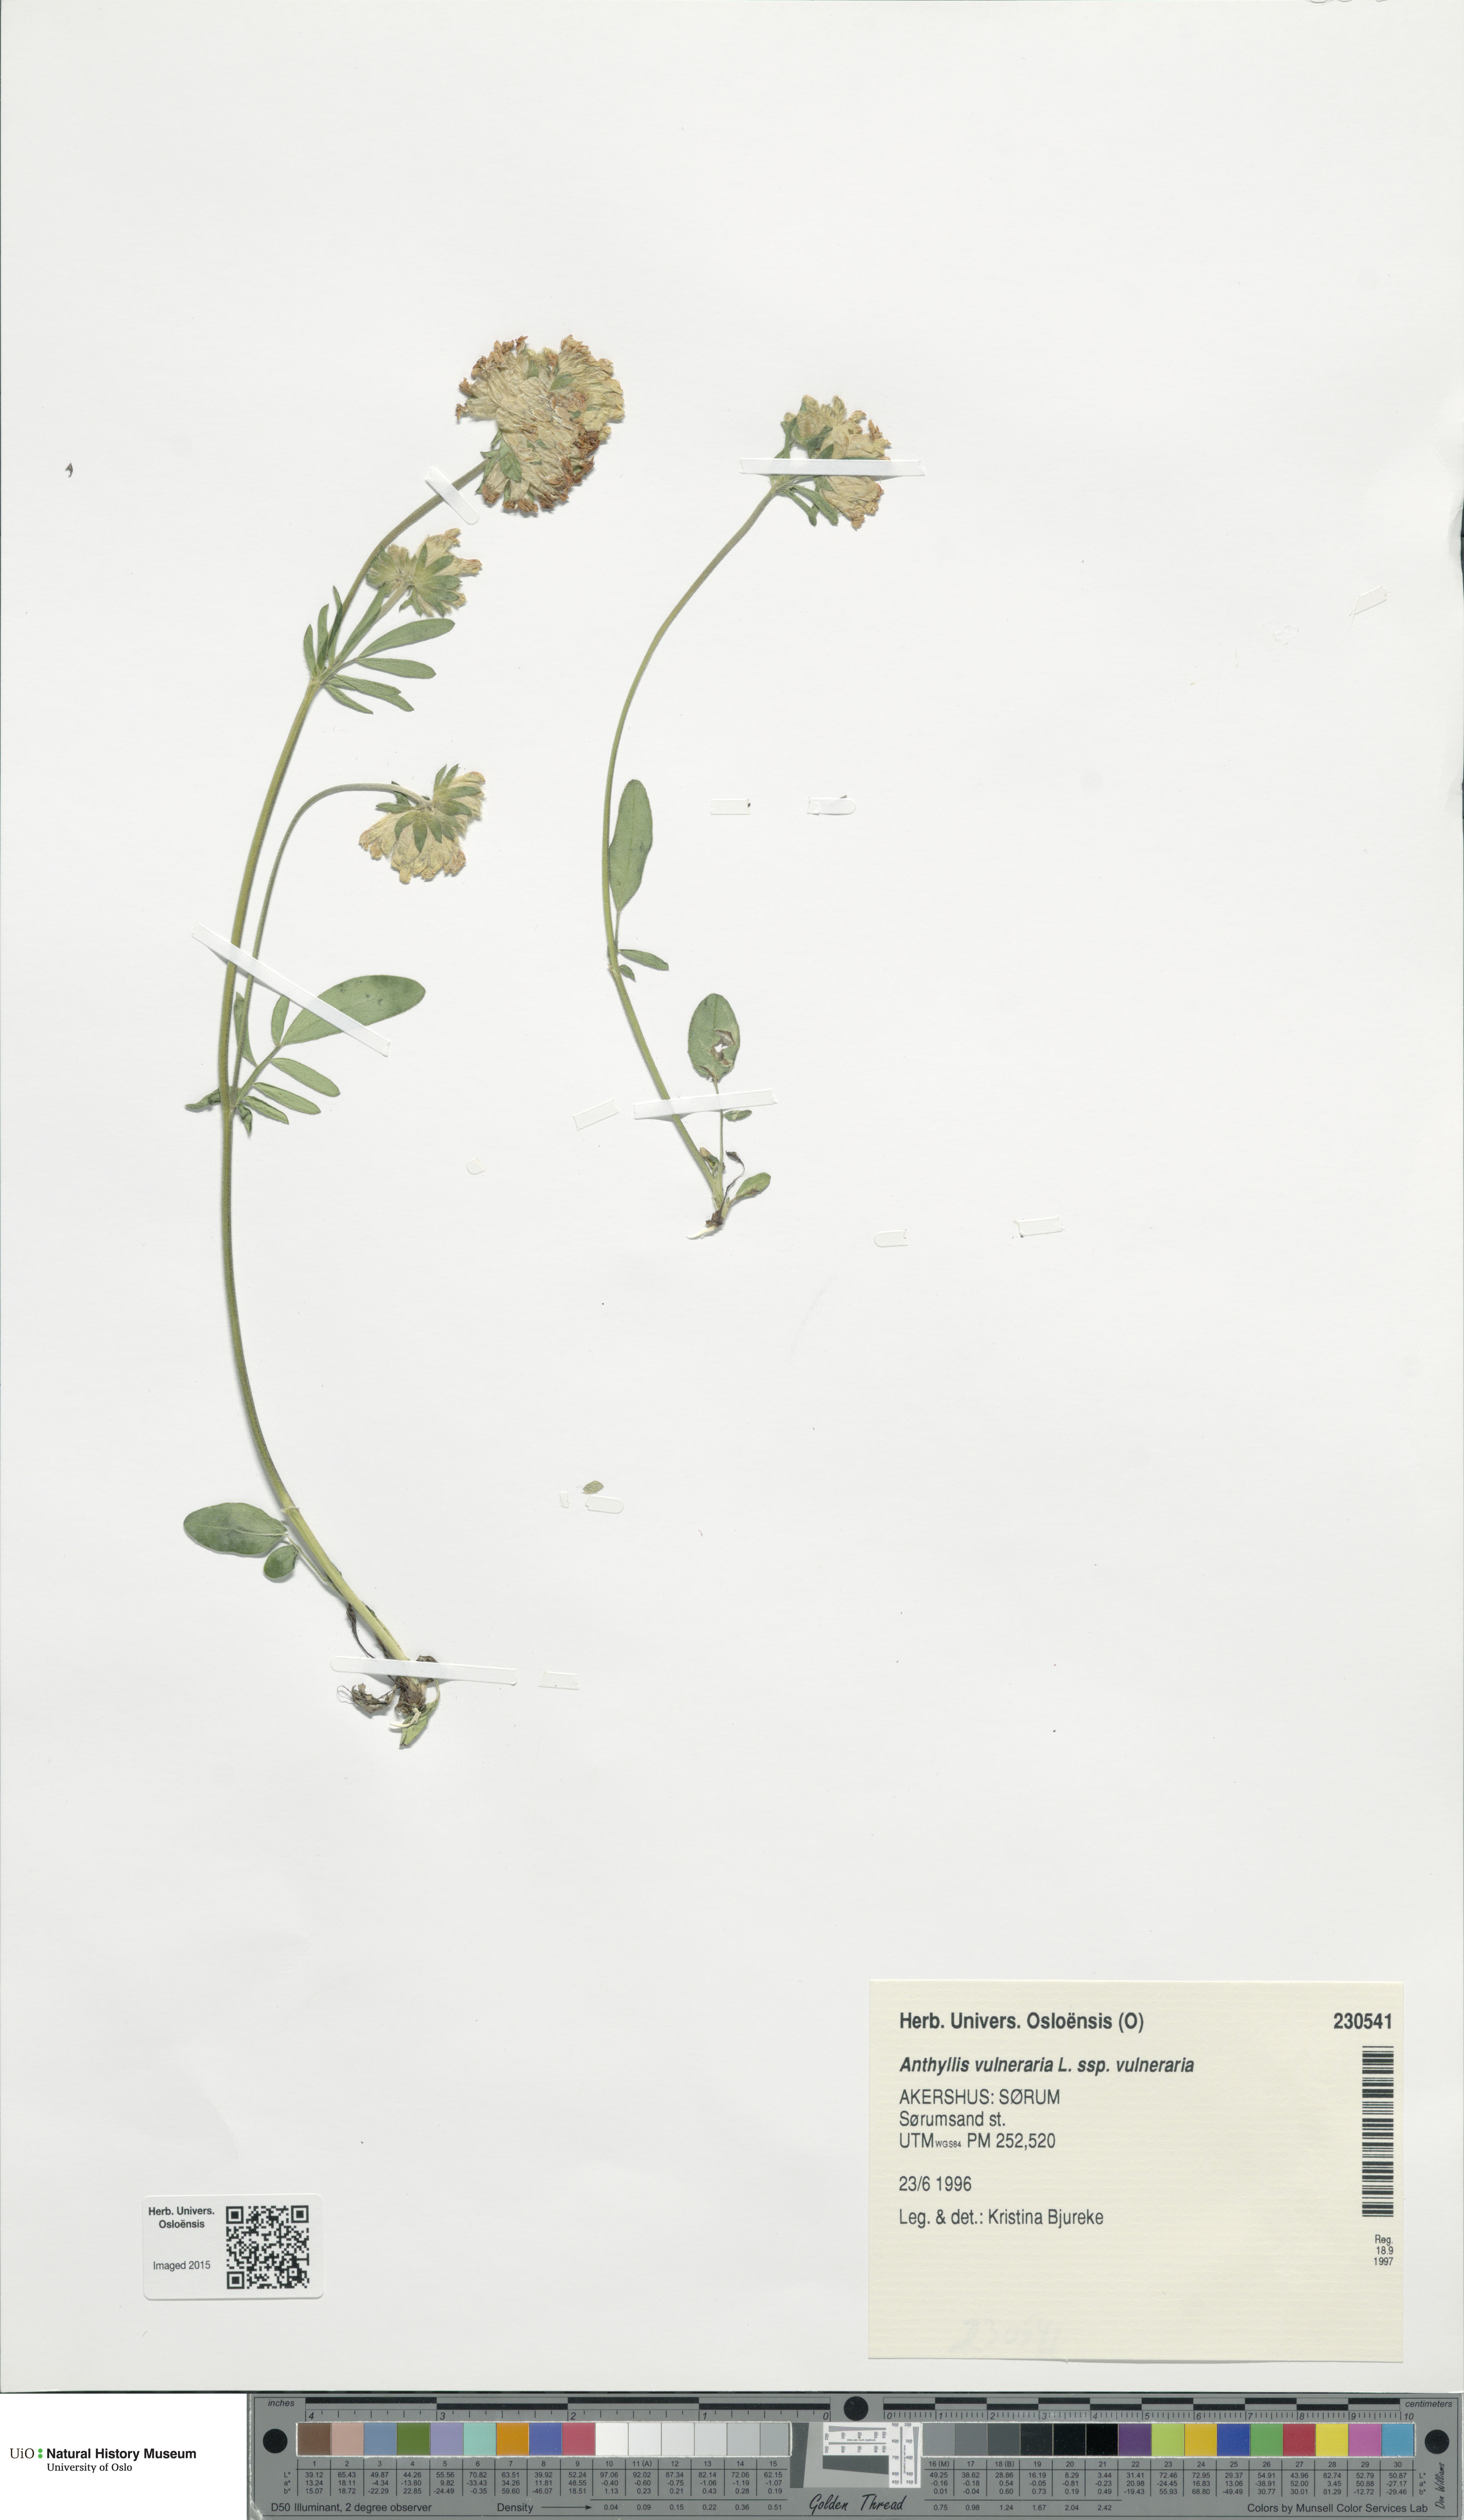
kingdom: Plantae
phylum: Tracheophyta
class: Magnoliopsida
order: Fabales
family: Fabaceae
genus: Anthyllis
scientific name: Anthyllis vulneraria
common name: Kidney vetch
